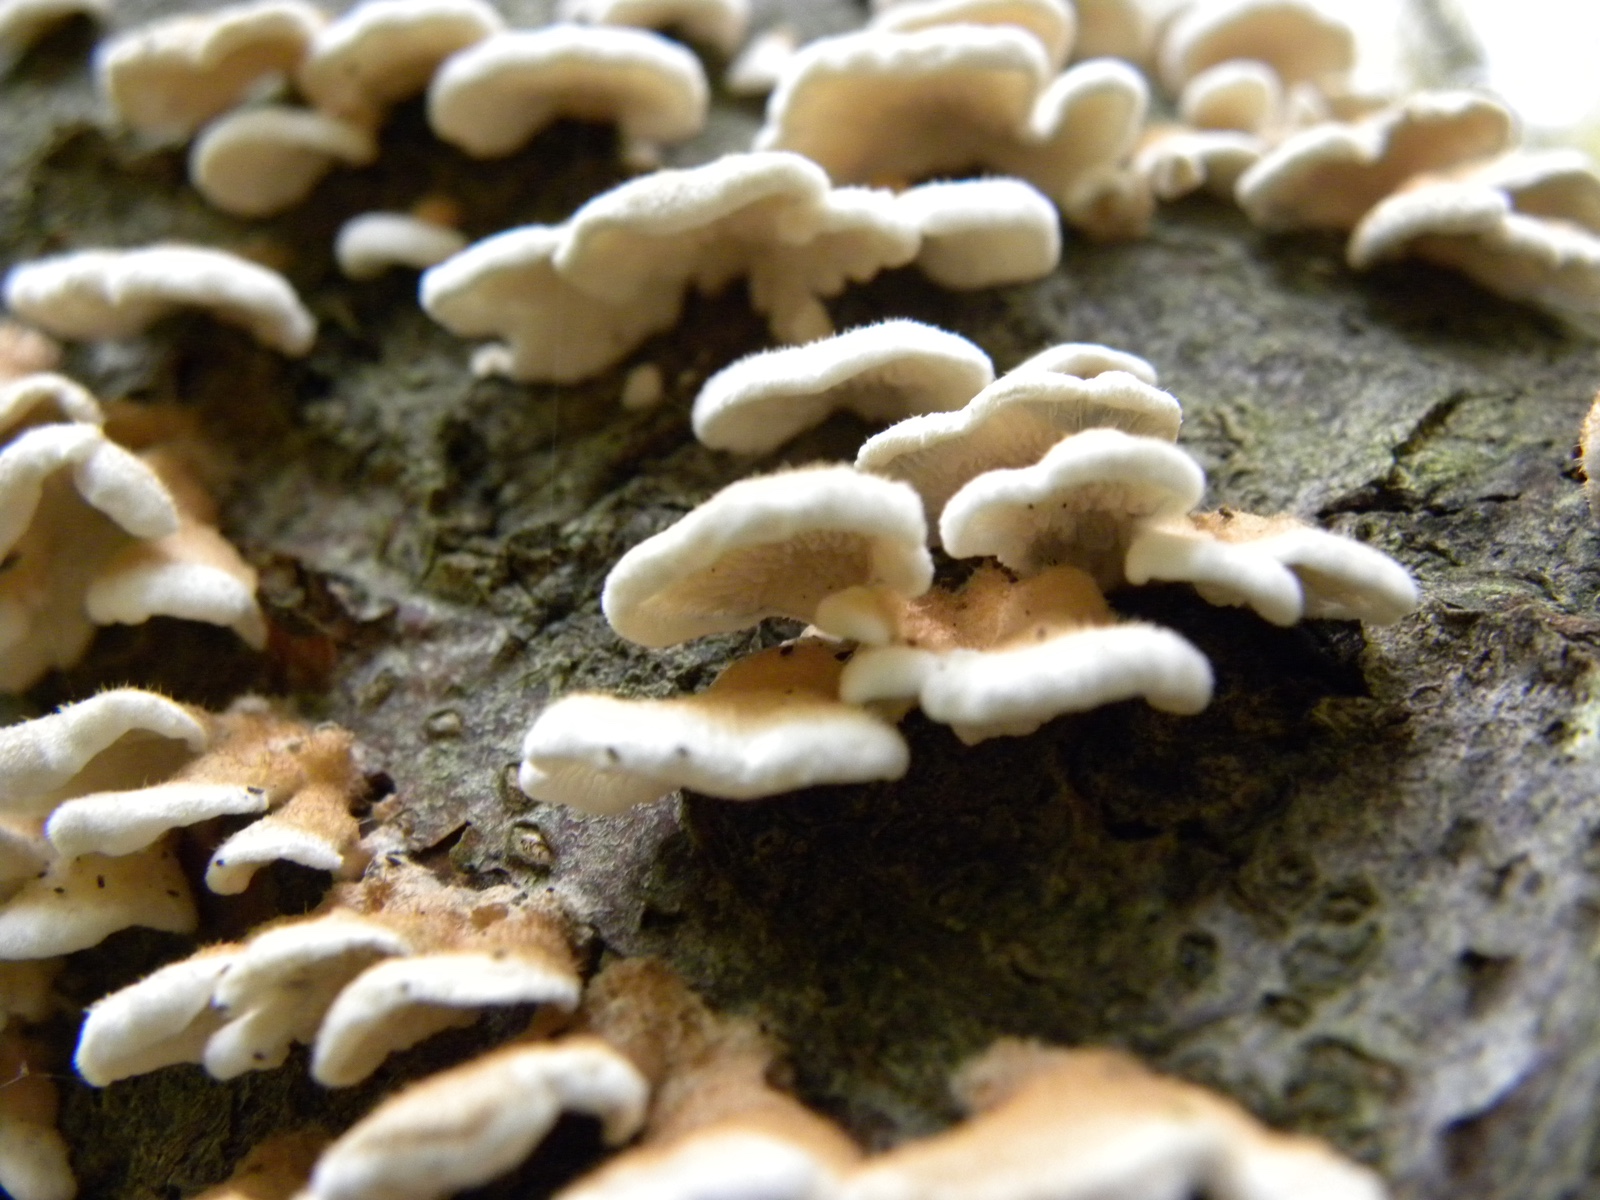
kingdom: Fungi
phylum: Basidiomycota
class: Agaricomycetes
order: Amylocorticiales
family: Amylocorticiaceae
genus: Plicaturopsis
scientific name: Plicaturopsis crispa
